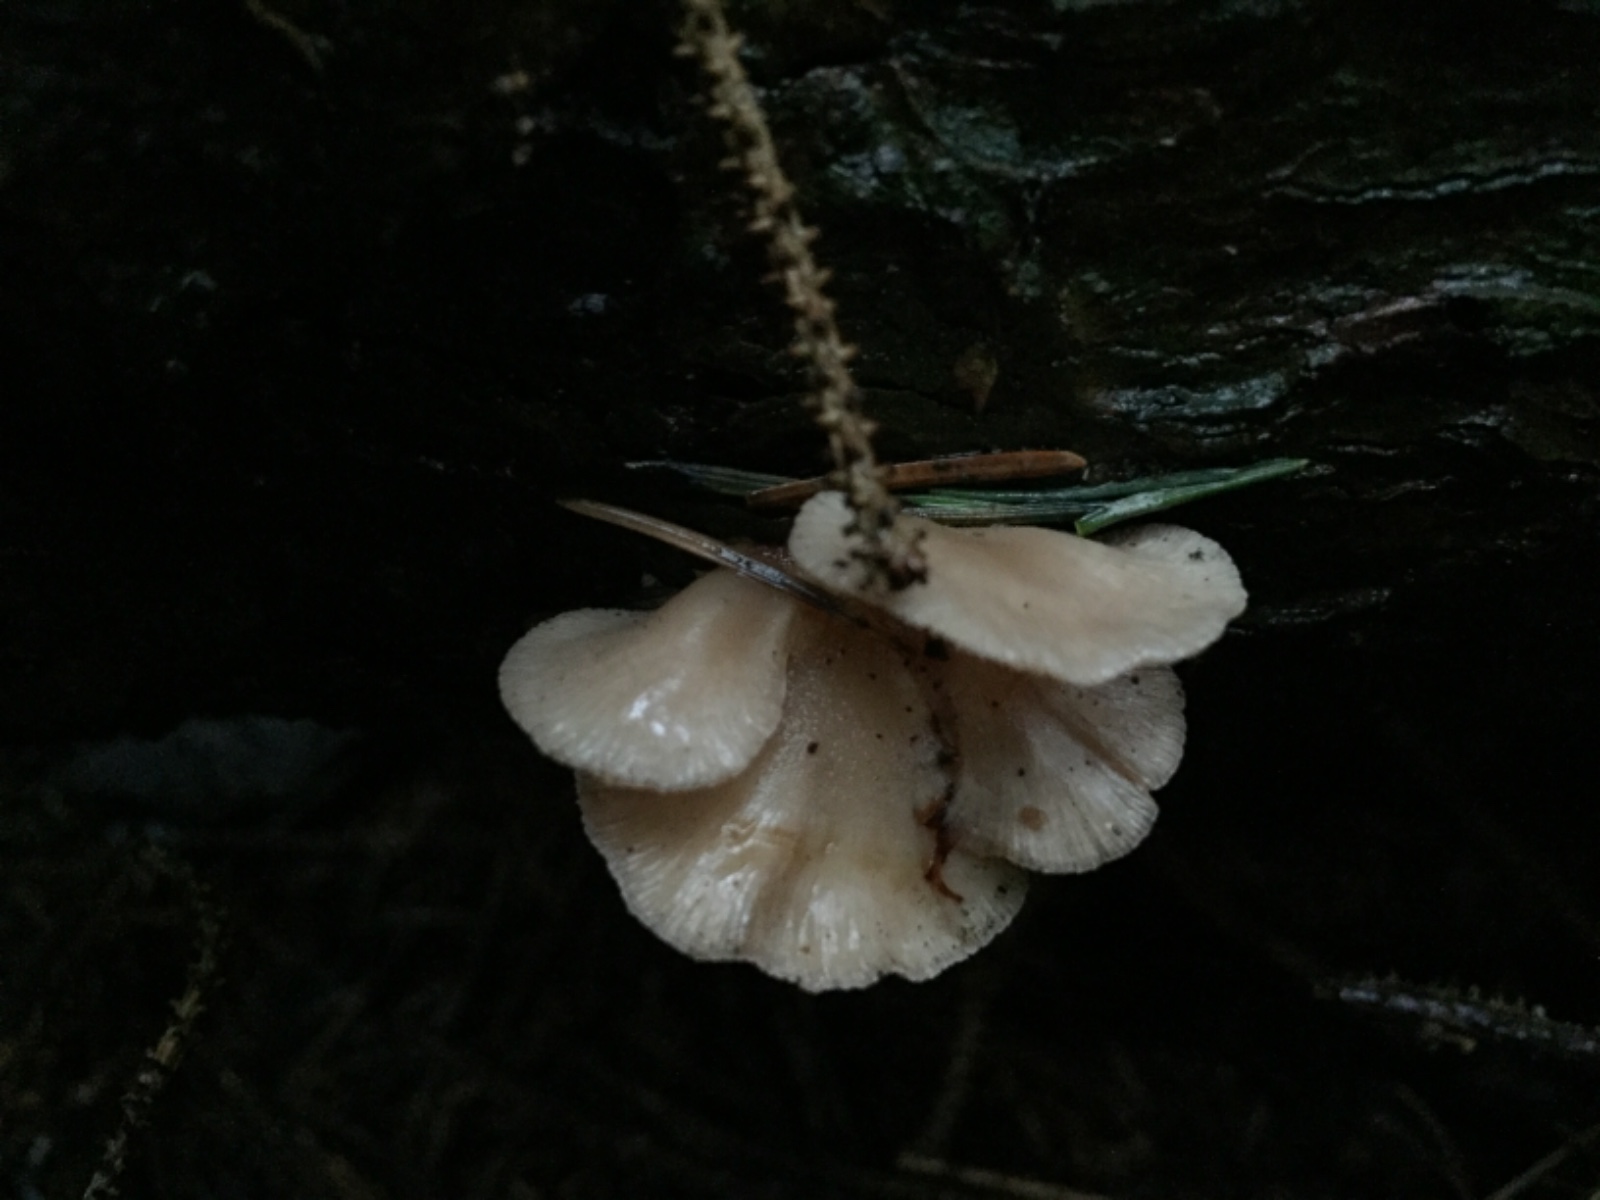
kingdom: Fungi
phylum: Basidiomycota
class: Agaricomycetes
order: Agaricales
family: Mycenaceae
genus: Panellus
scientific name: Panellus mitis
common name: mild epaulethat
